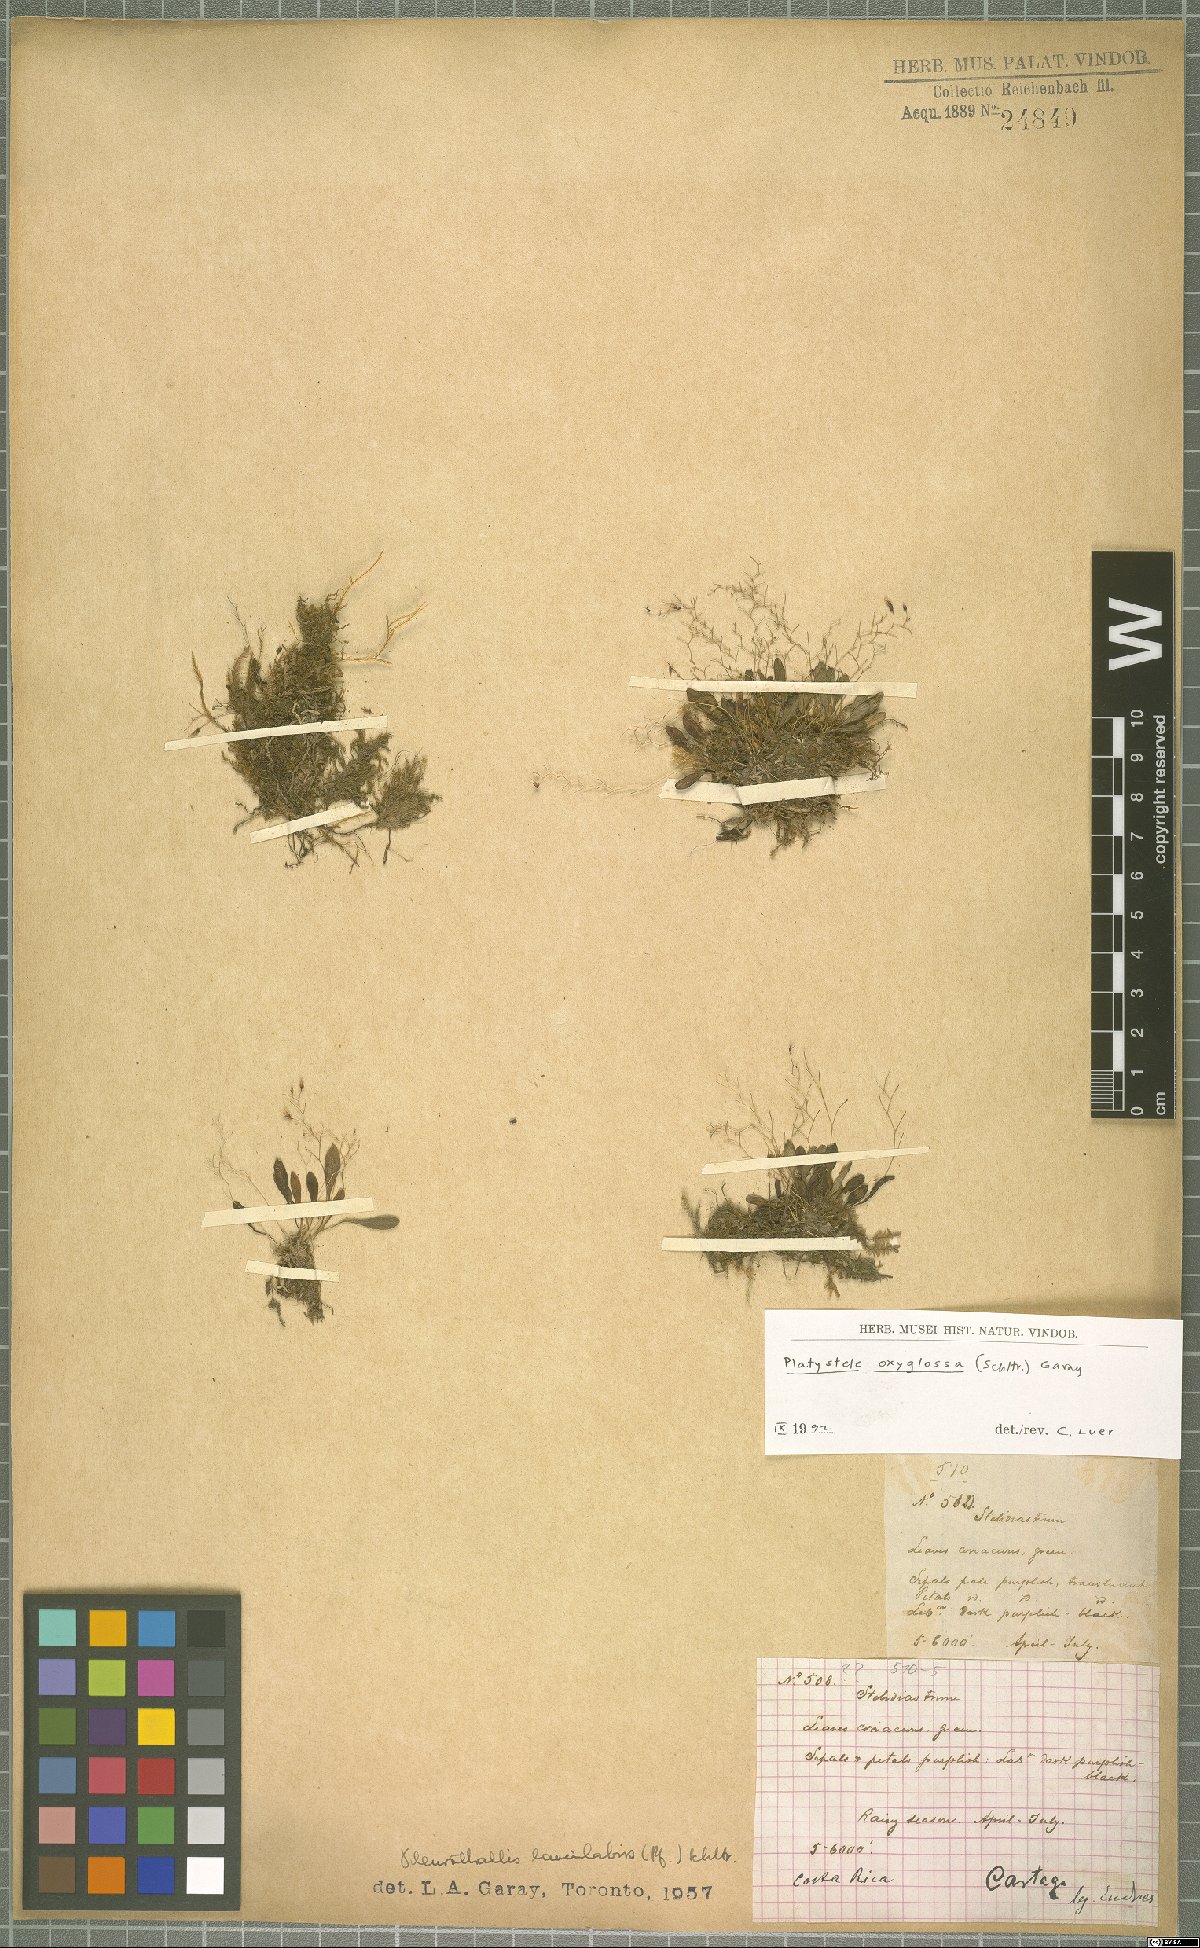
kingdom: Plantae
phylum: Tracheophyta
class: Liliopsida
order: Asparagales
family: Orchidaceae
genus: Platystele
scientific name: Platystele oxyglossa
